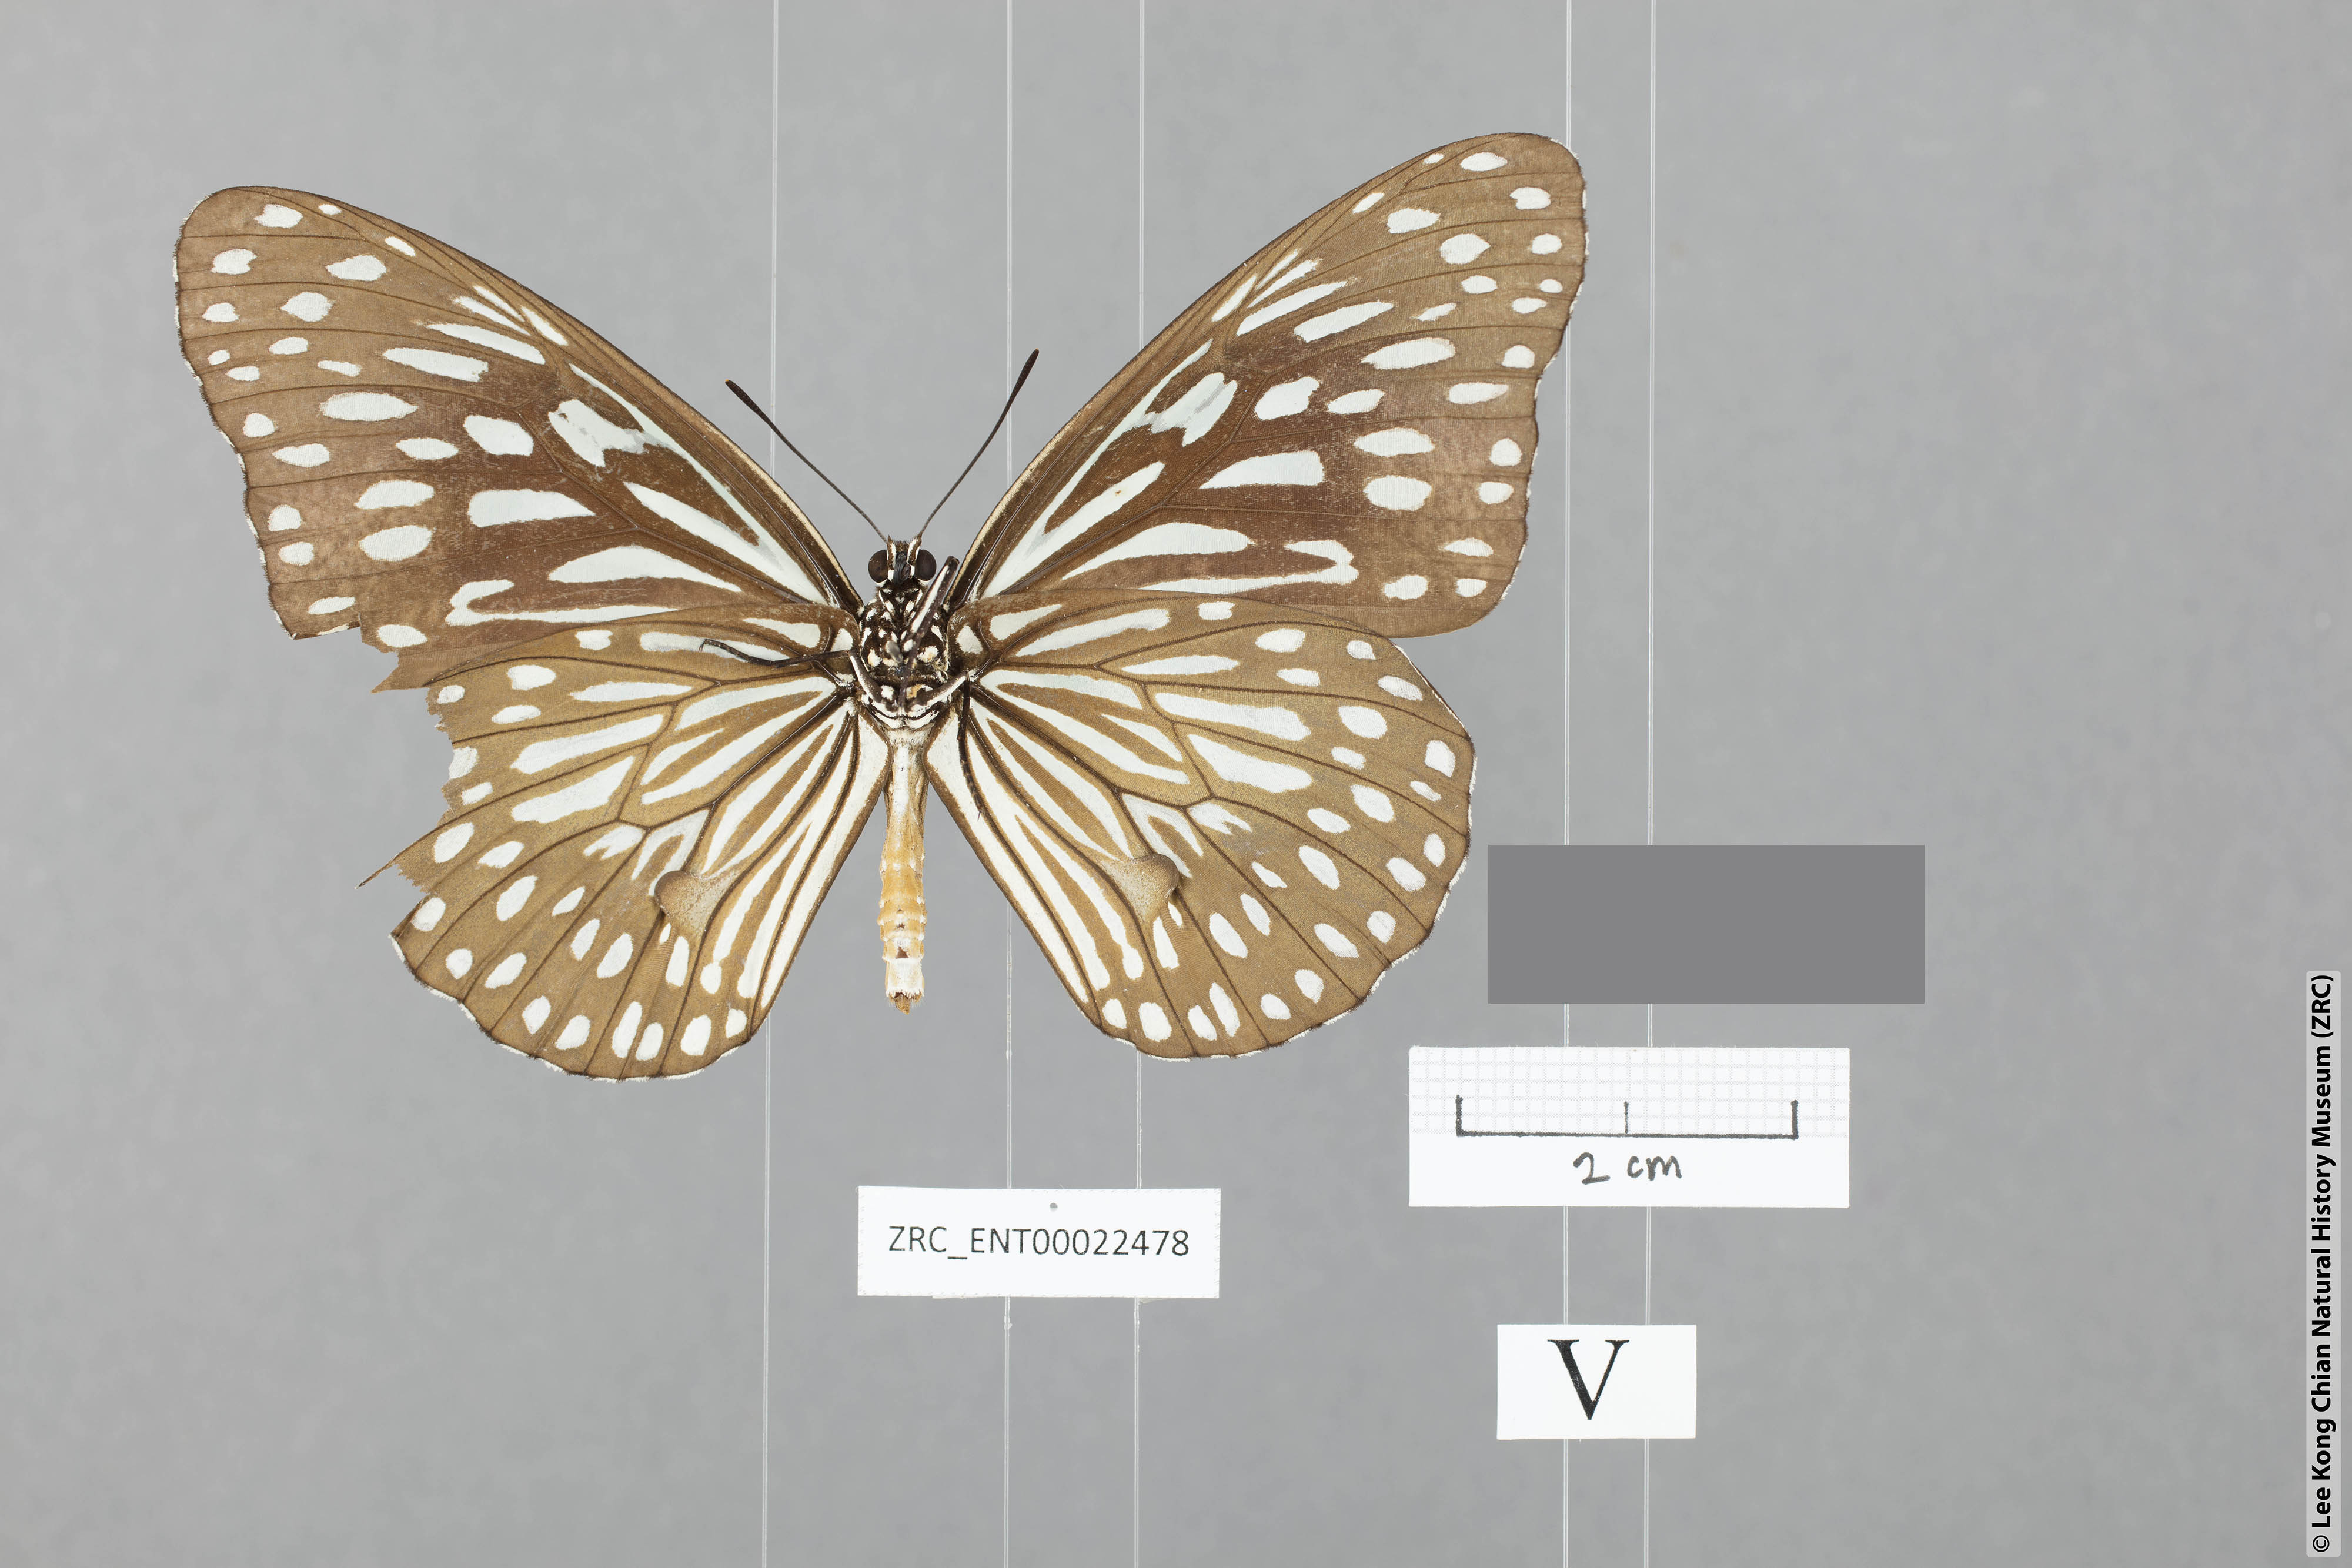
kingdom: Animalia
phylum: Arthropoda
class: Insecta
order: Lepidoptera
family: Nymphalidae
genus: Tirumala
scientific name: Tirumala gautama
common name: Scarce blue tiger
